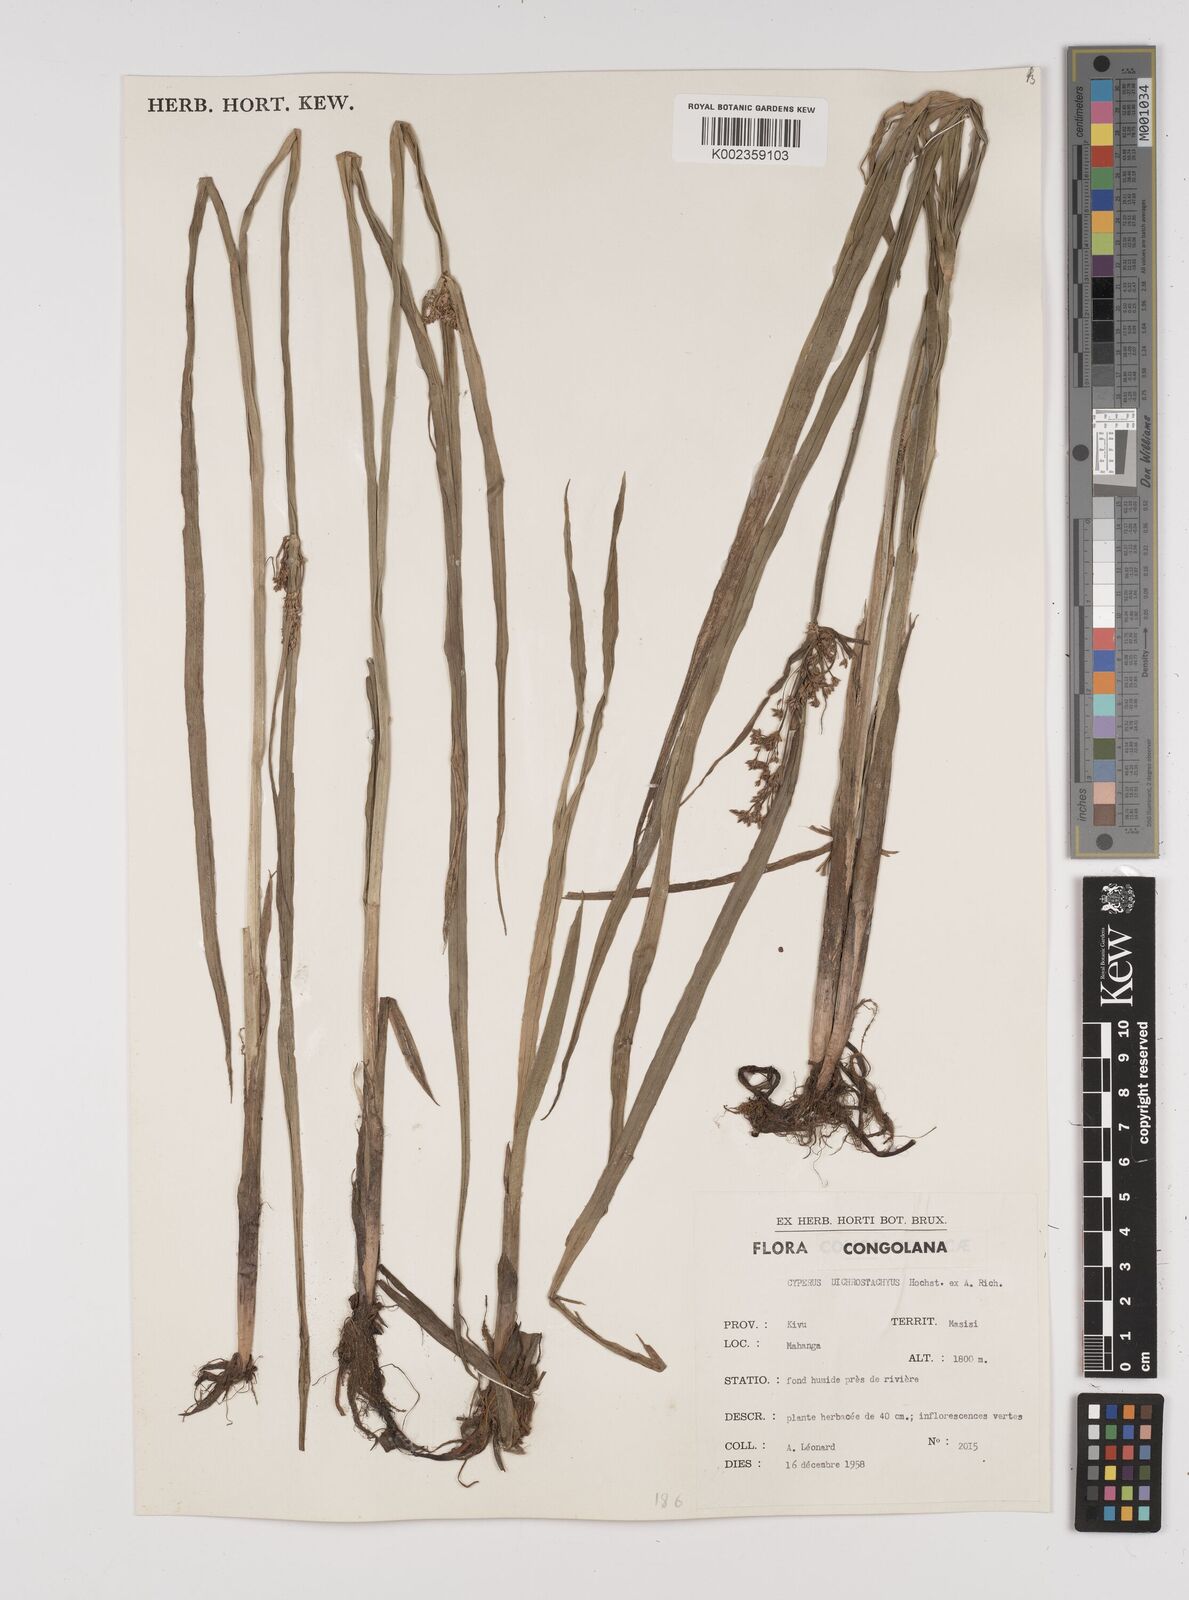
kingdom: Plantae
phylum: Tracheophyta
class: Liliopsida
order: Poales
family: Cyperaceae
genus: Cyperus
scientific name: Cyperus dichrostachyus
